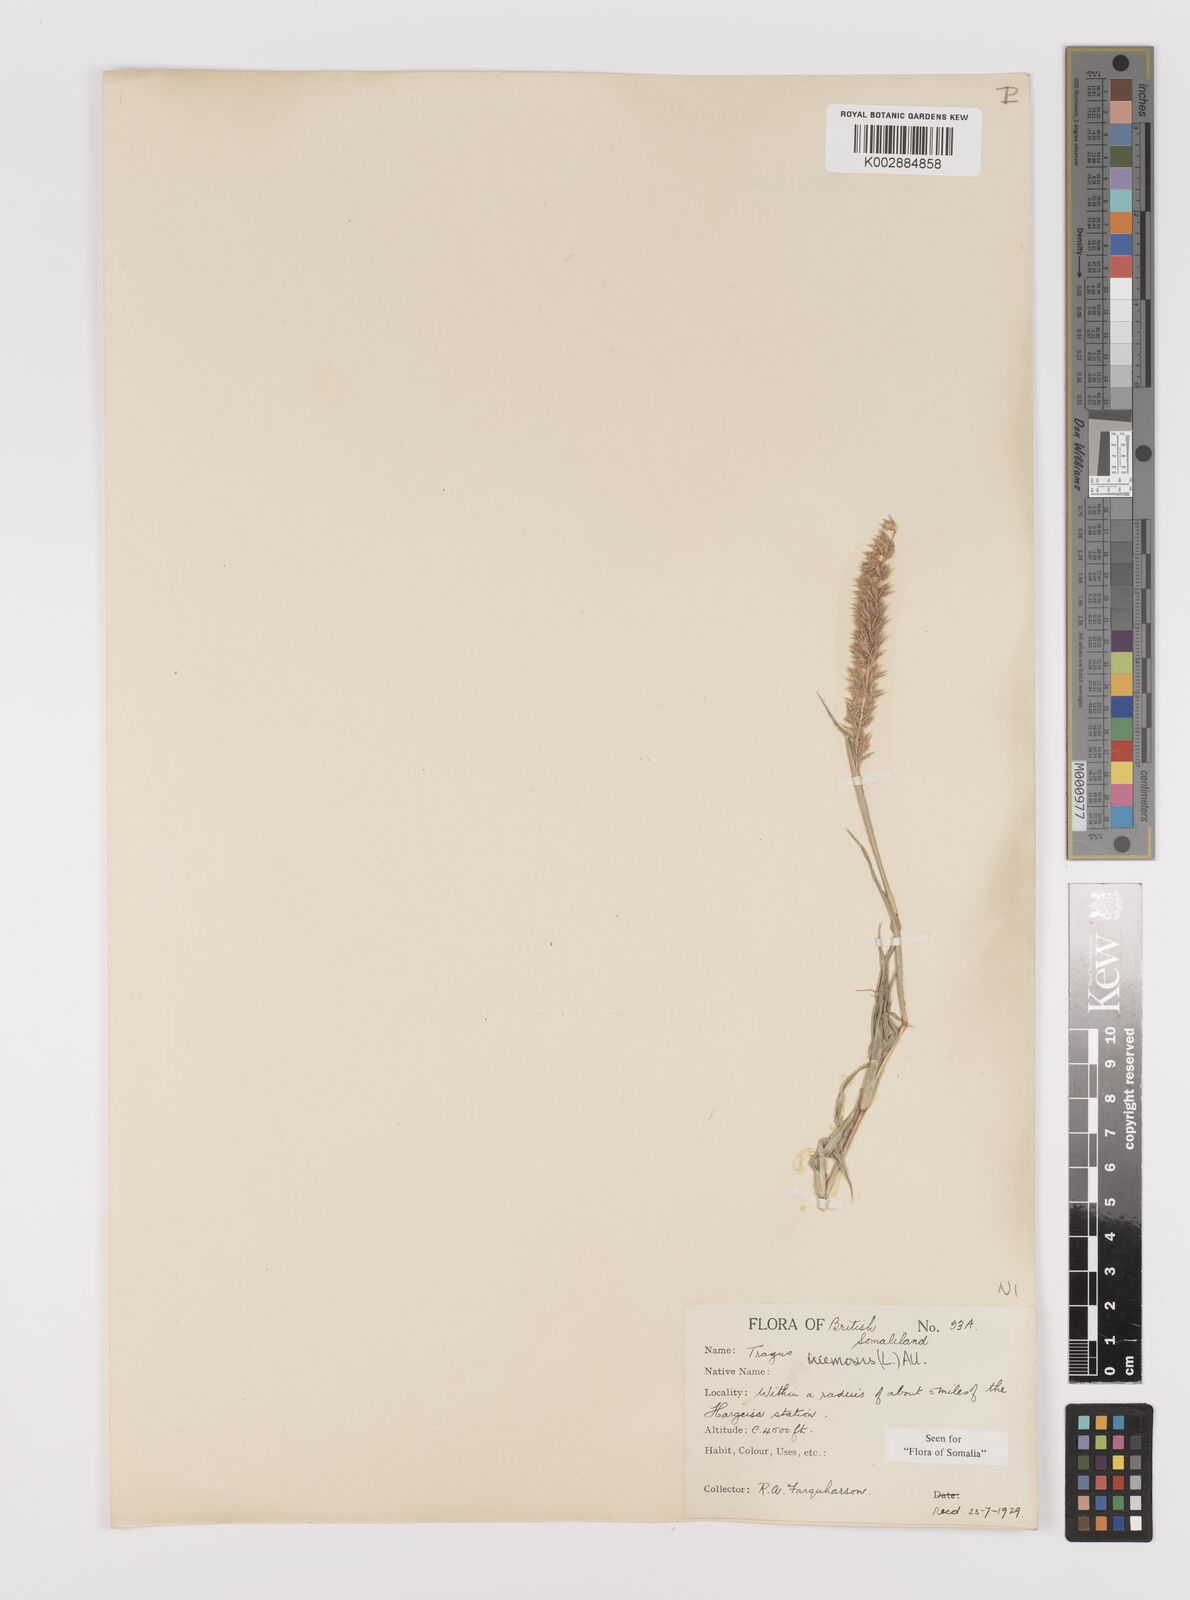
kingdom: Plantae
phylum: Tracheophyta
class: Liliopsida
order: Poales
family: Poaceae
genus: Tragus
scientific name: Tragus racemosus
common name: European bur-grass
